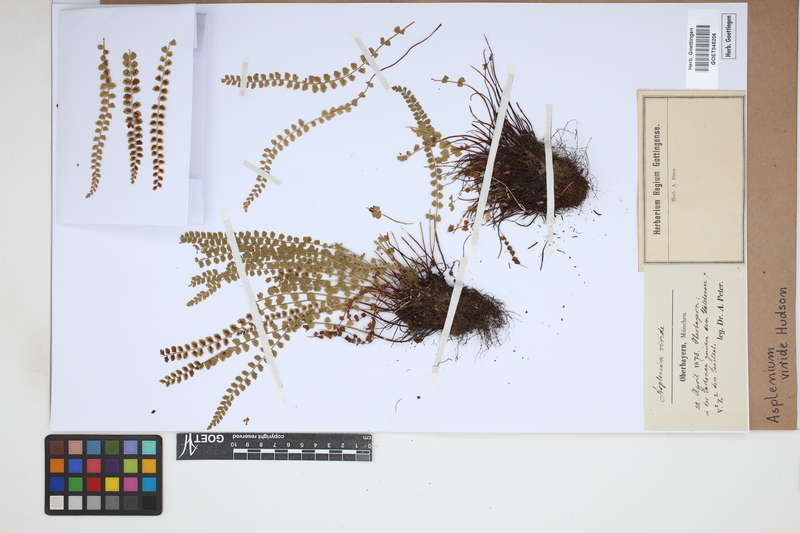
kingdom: Plantae
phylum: Tracheophyta
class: Polypodiopsida
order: Polypodiales
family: Aspleniaceae
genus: Asplenium
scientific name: Asplenium viride
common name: Green spleenwort
